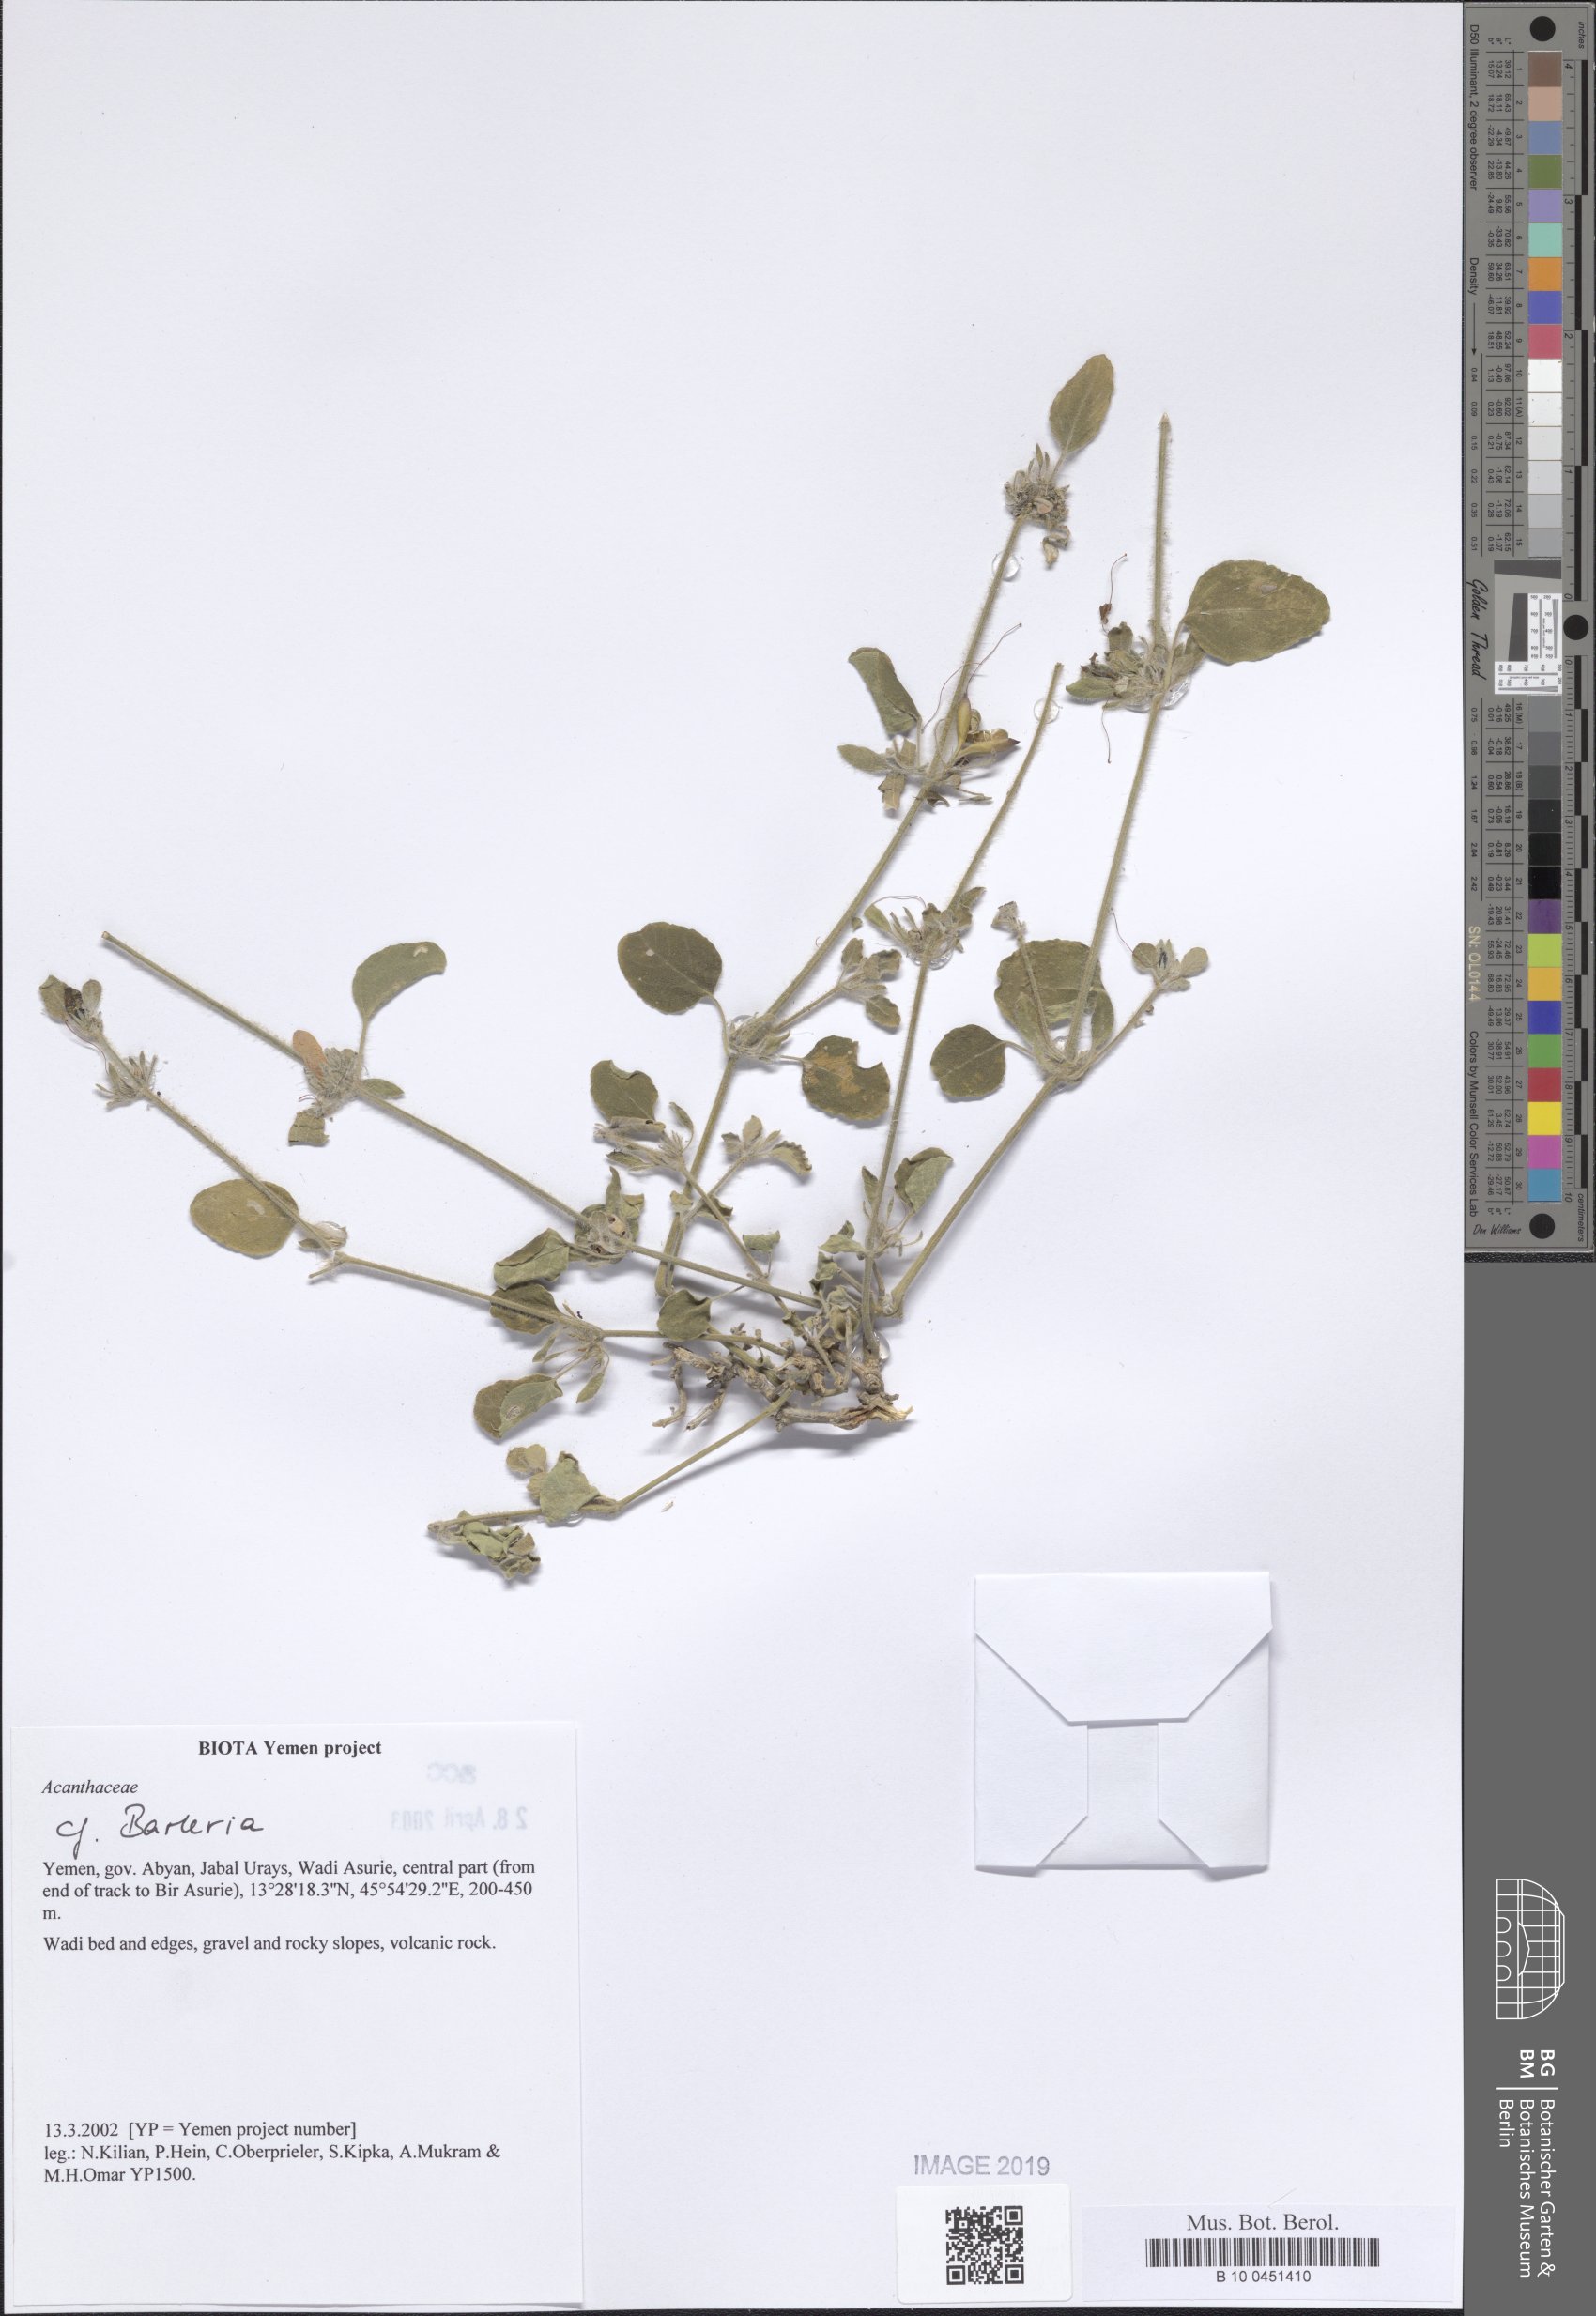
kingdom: Plantae
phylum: Tracheophyta
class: Magnoliopsida
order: Lamiales
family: Acanthaceae
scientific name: Acanthaceae
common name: Acanthaceae
